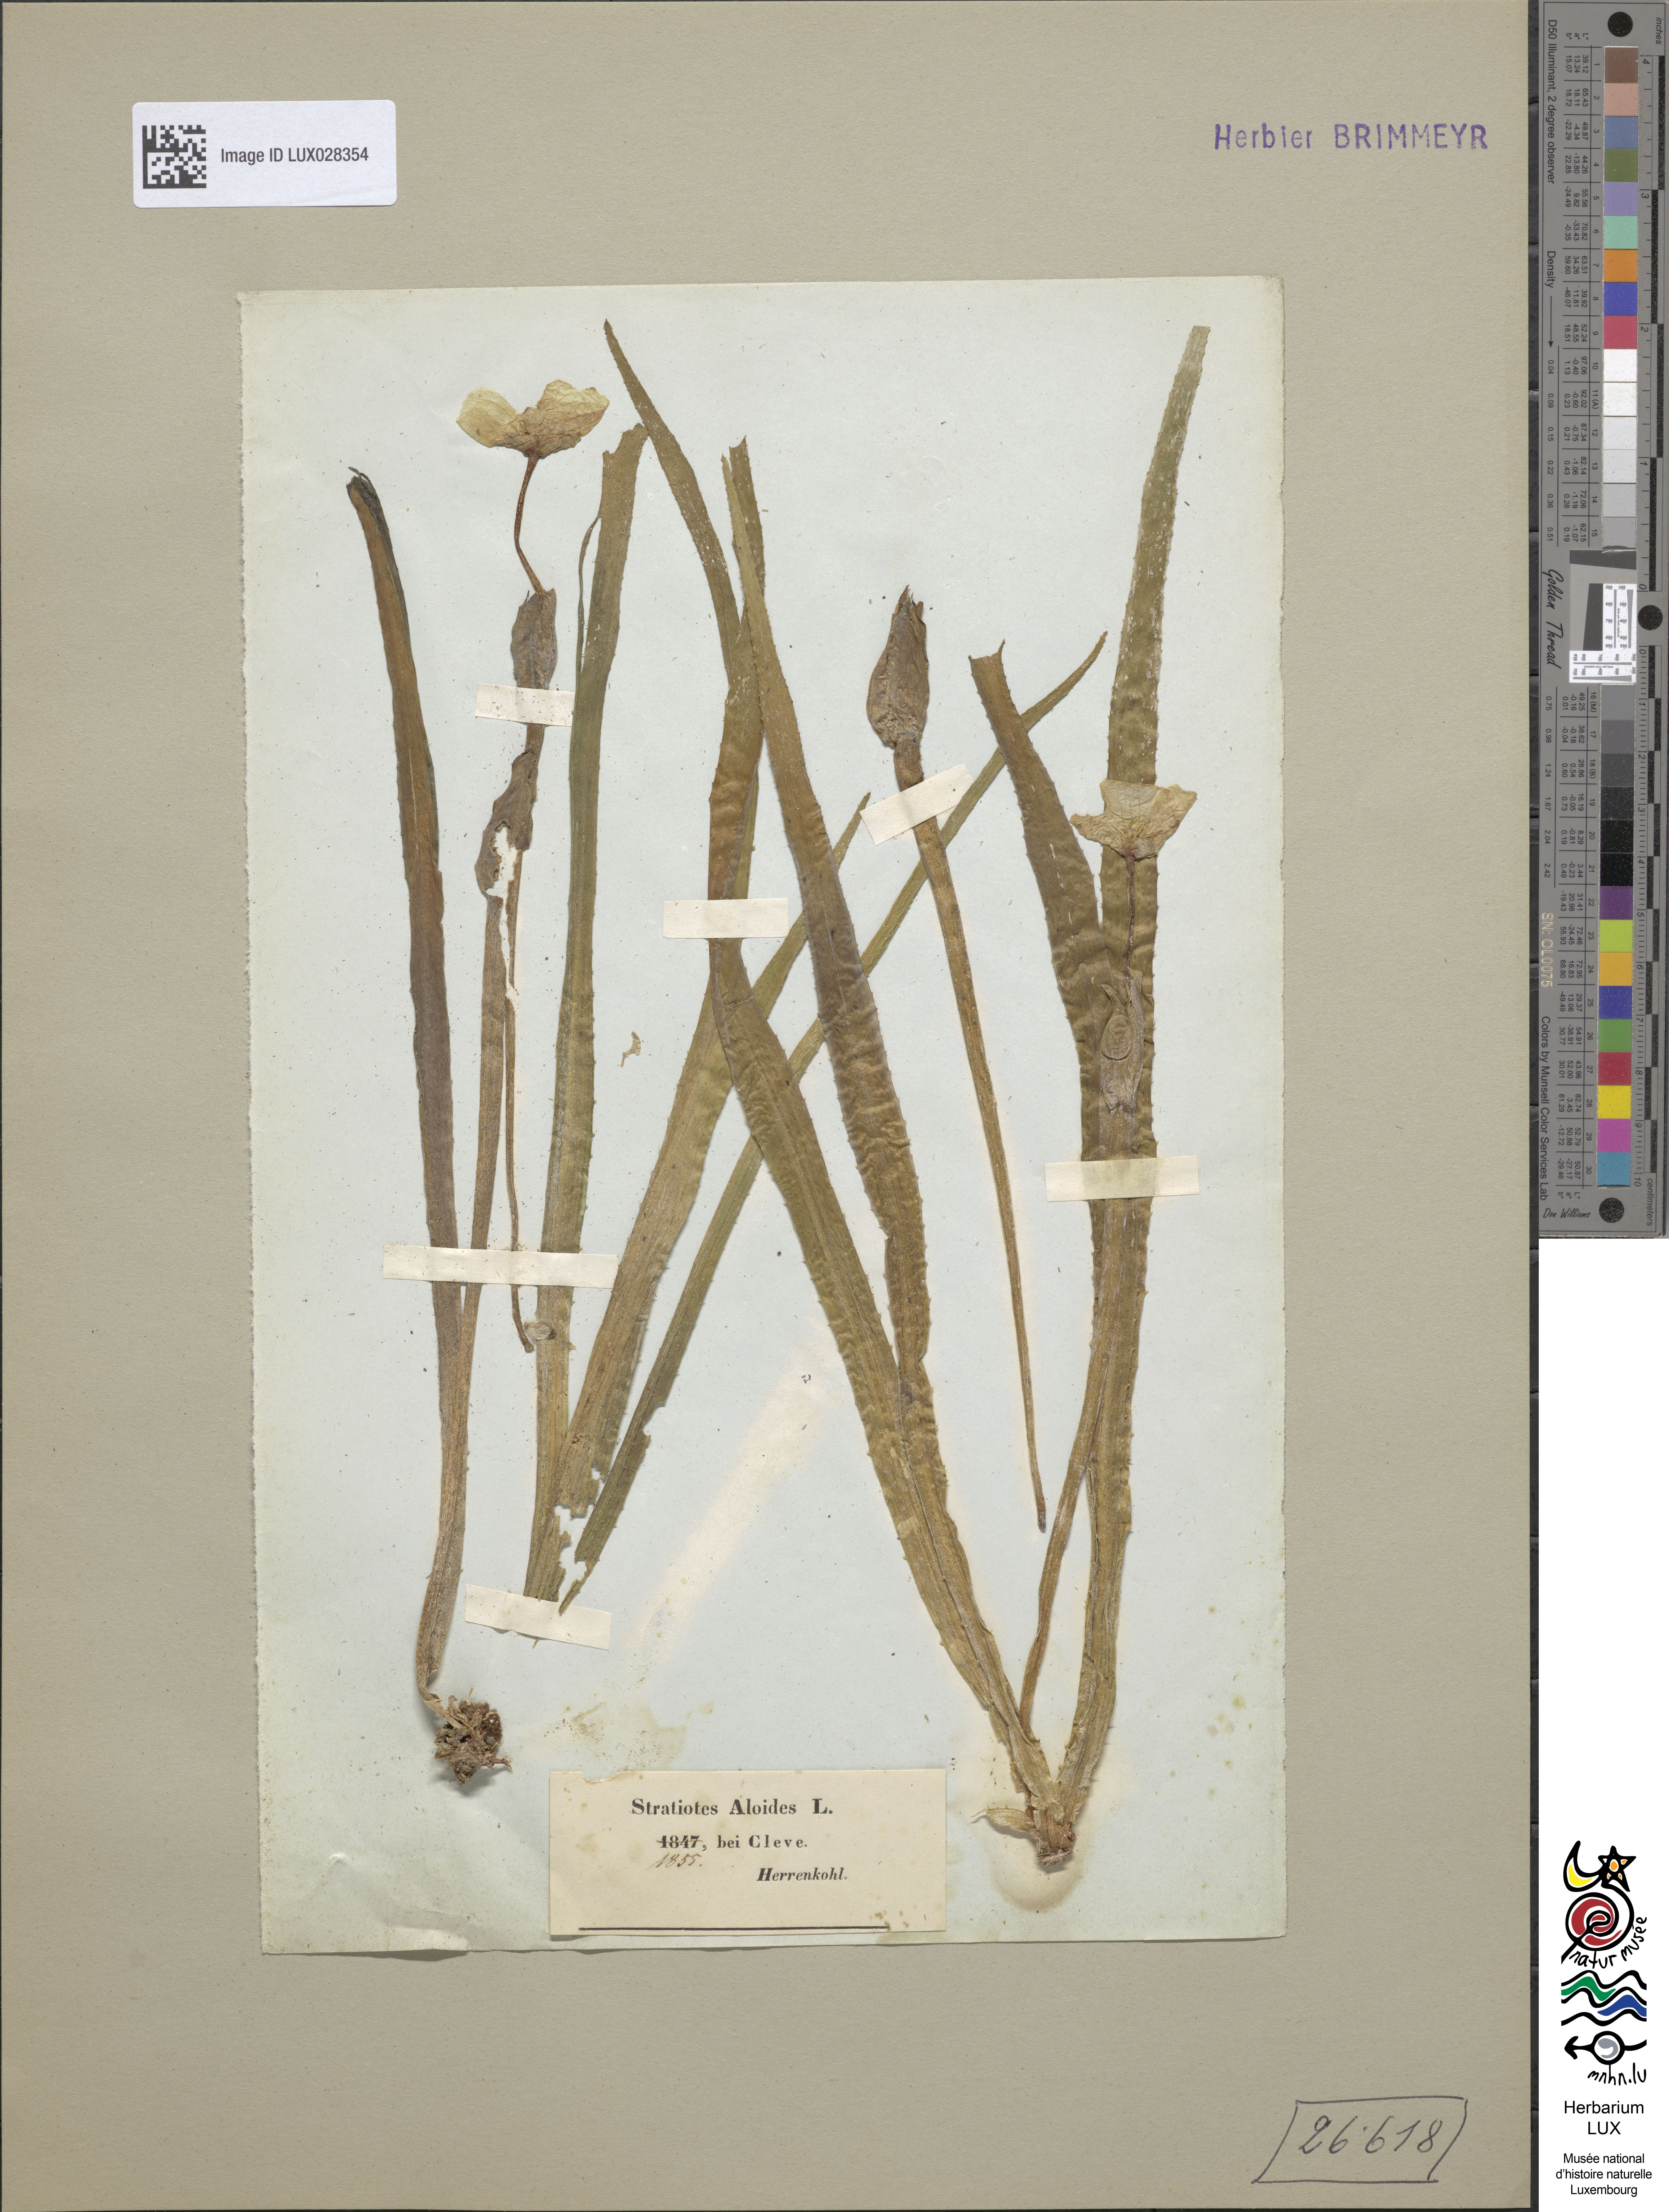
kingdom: Plantae
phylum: Tracheophyta
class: Liliopsida
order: Alismatales
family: Hydrocharitaceae
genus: Stratiotes
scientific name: Stratiotes aloides
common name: Water-soldier
